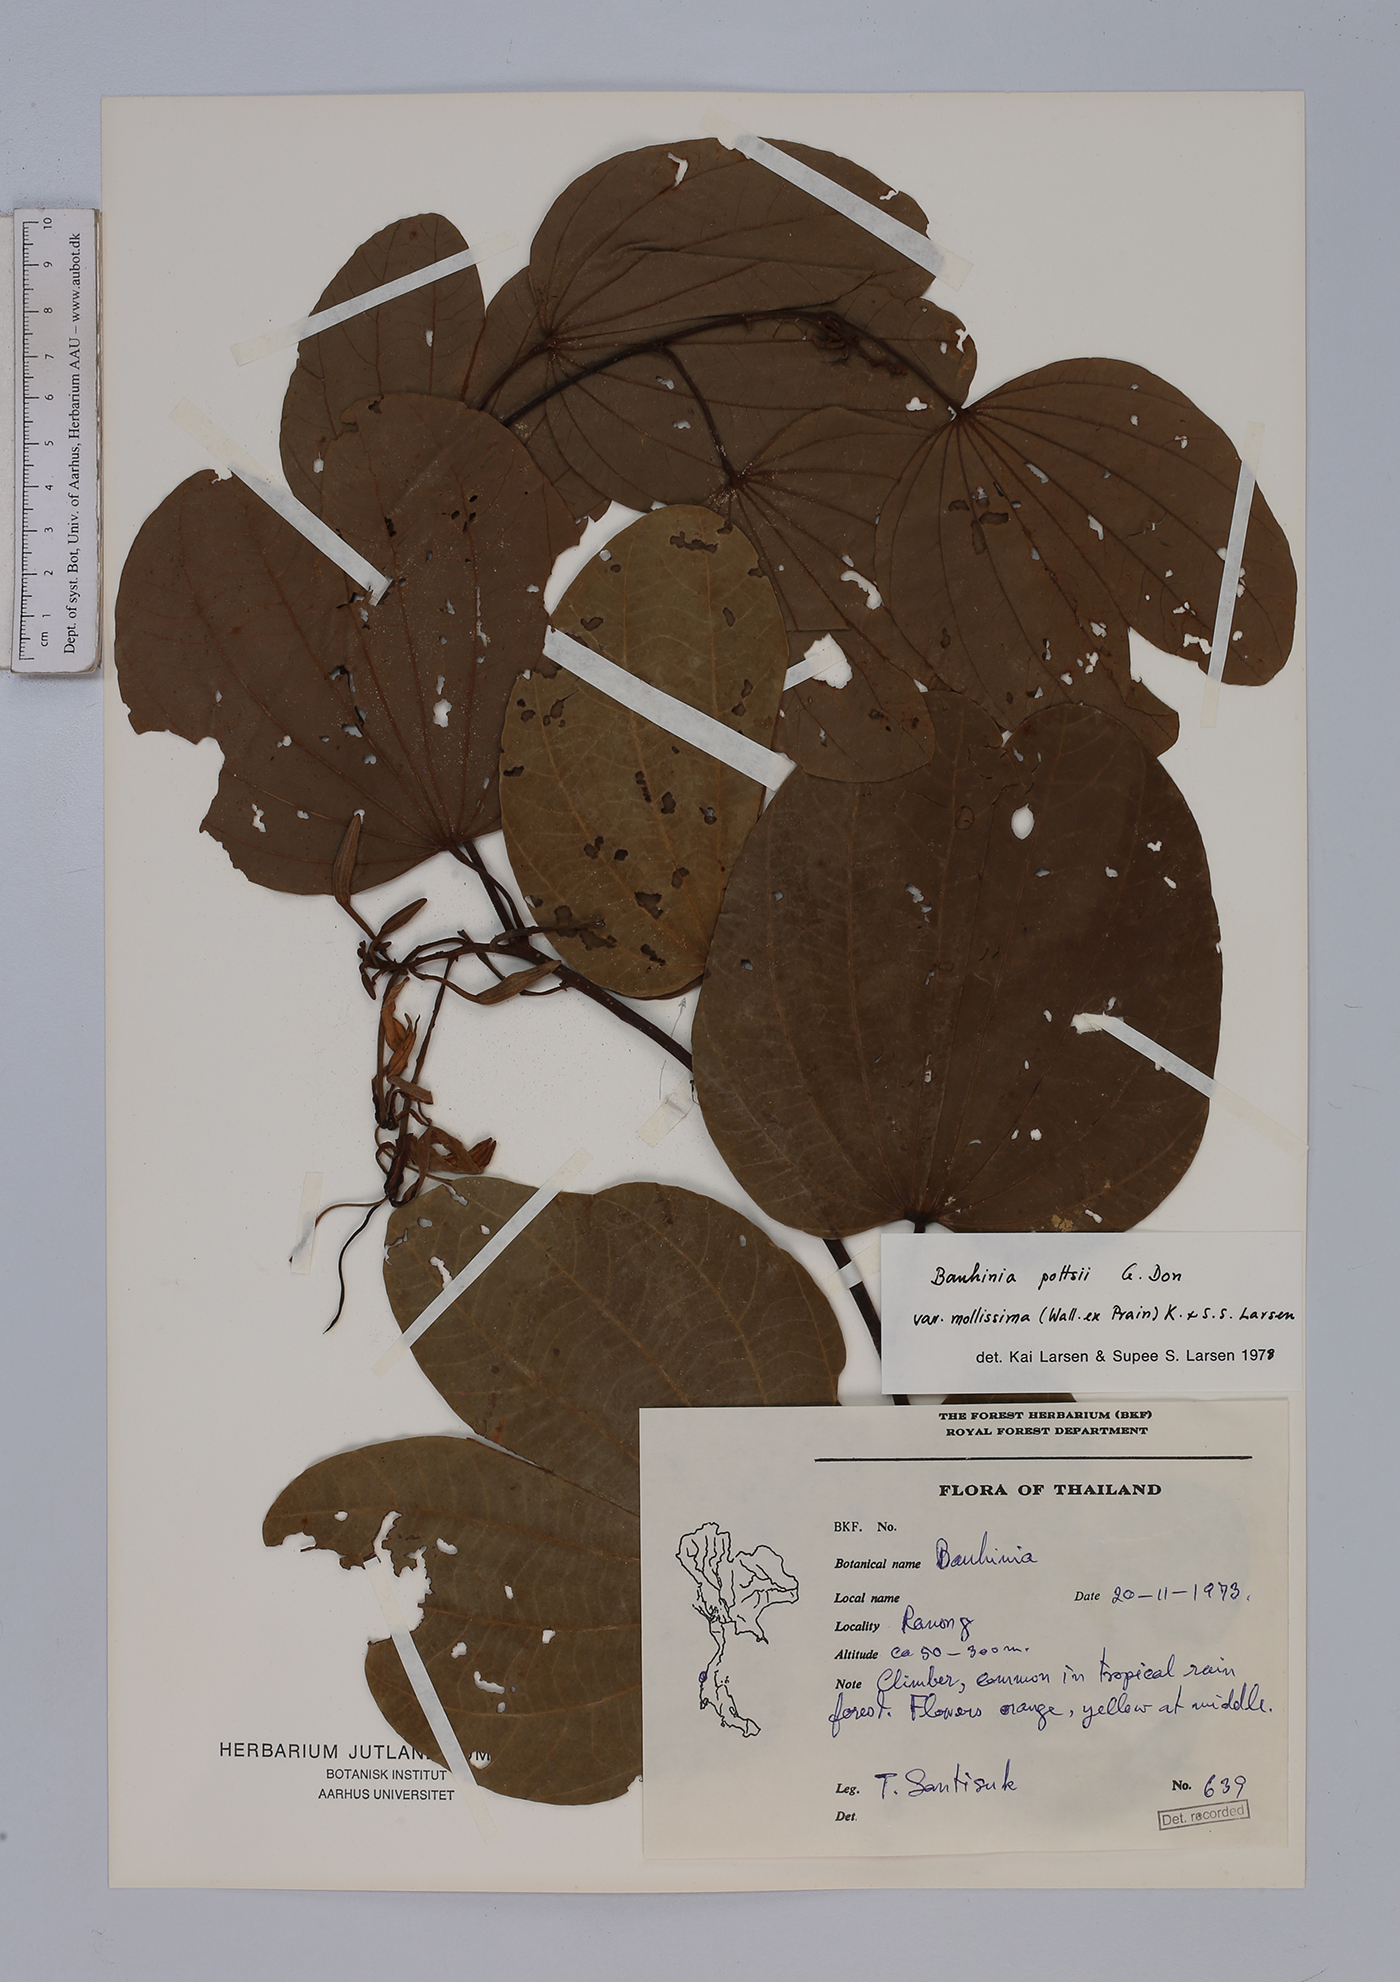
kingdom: Plantae
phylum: Tracheophyta
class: Magnoliopsida
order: Fabales
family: Fabaceae
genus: Bauhinia
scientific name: Bauhinia pottsii
